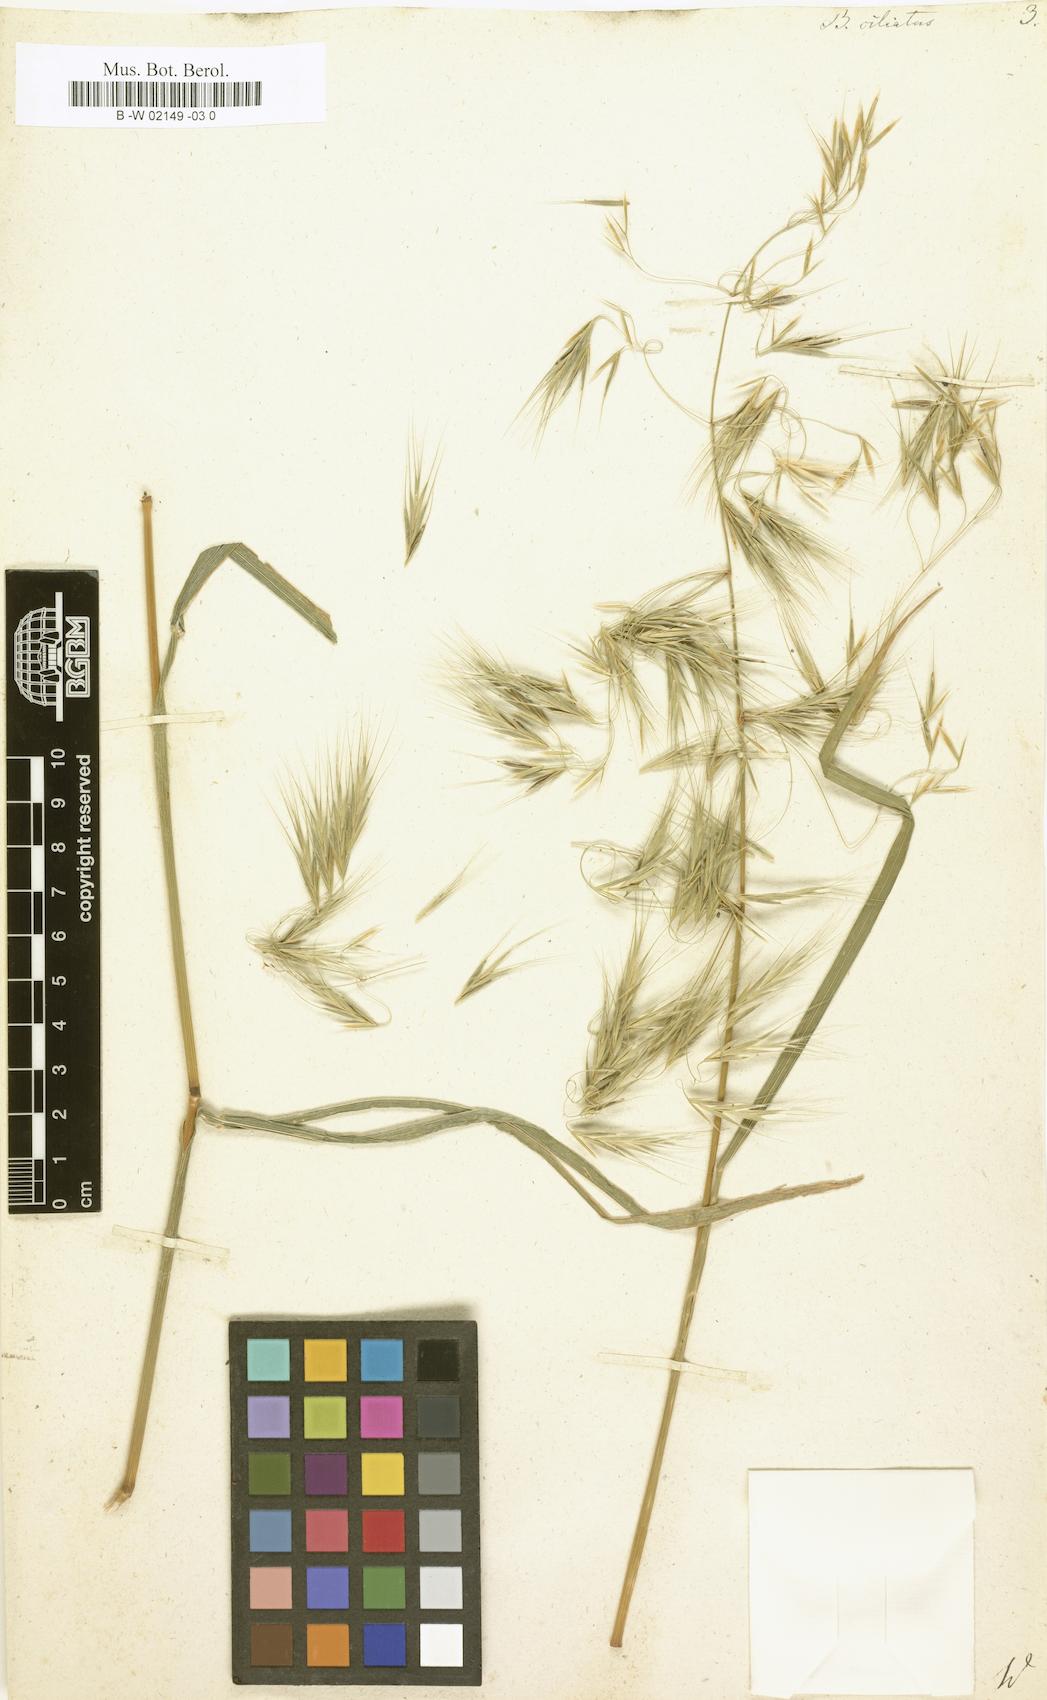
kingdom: Plantae
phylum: Tracheophyta
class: Liliopsida
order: Poales
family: Poaceae
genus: Bromus
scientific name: Bromus ciliatus
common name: Fringe brome
